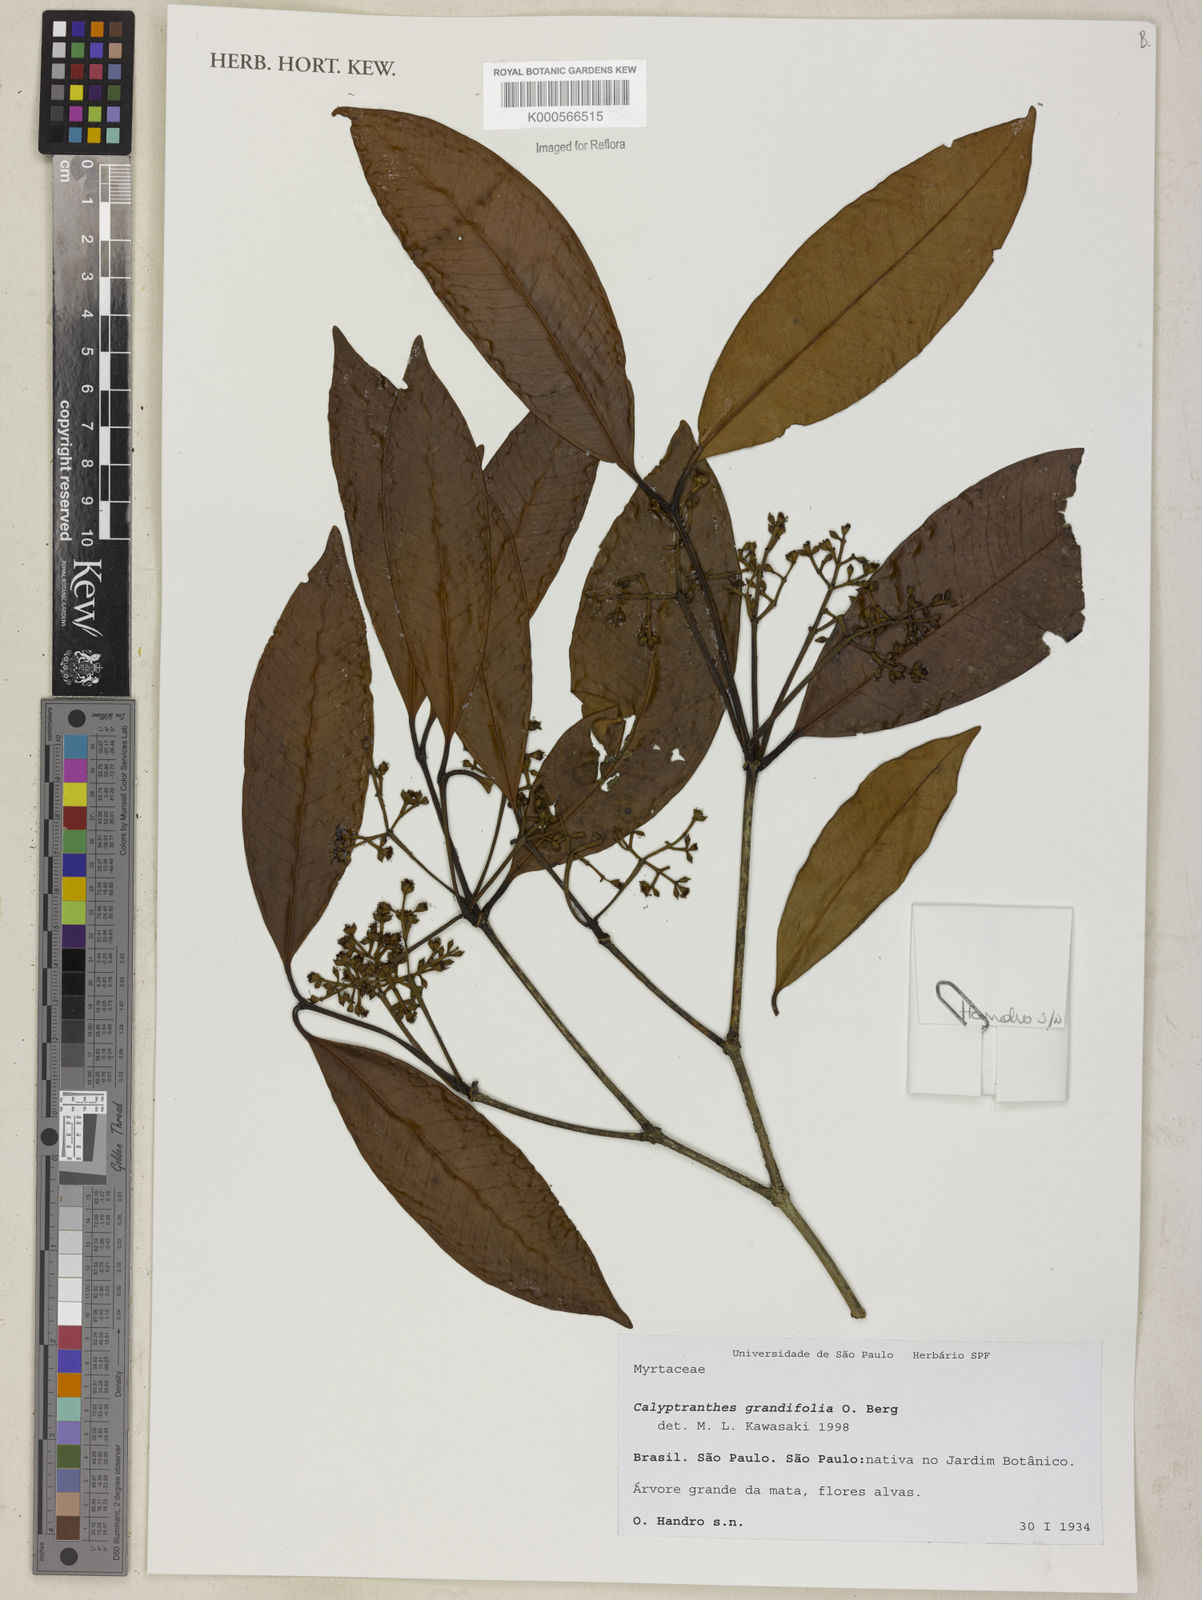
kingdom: Plantae
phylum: Tracheophyta
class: Magnoliopsida
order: Myrtales
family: Myrtaceae
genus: Calyptranthes
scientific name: Calyptranthes grandifolia
